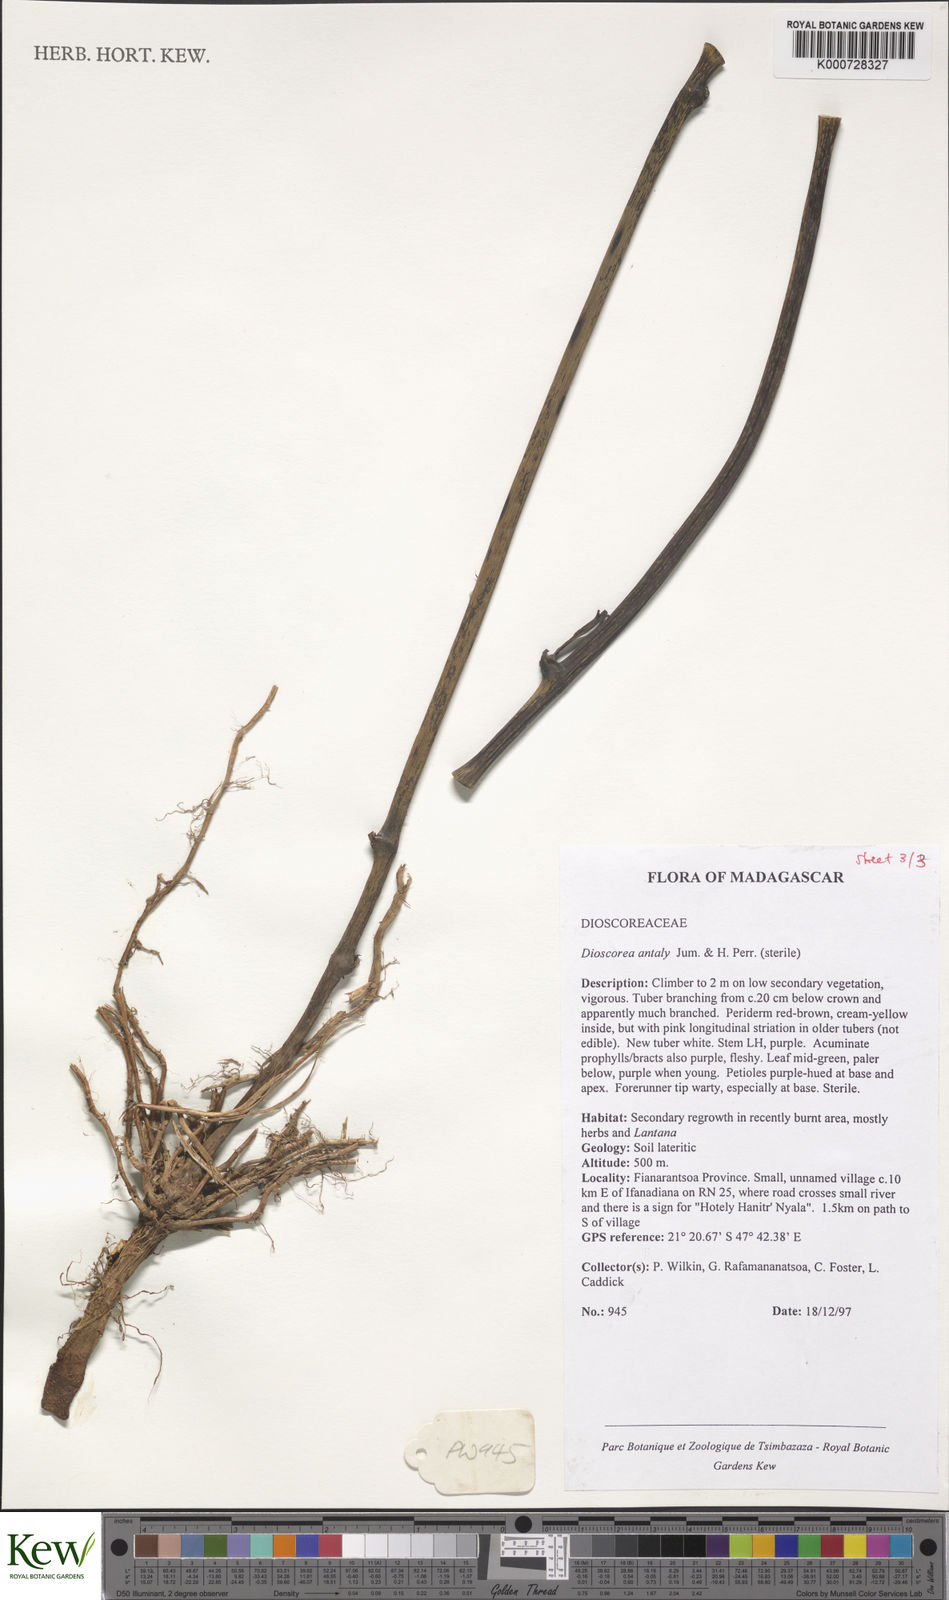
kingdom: Plantae
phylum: Tracheophyta
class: Liliopsida
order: Dioscoreales
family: Dioscoreaceae
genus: Dioscorea
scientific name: Dioscorea antaly
